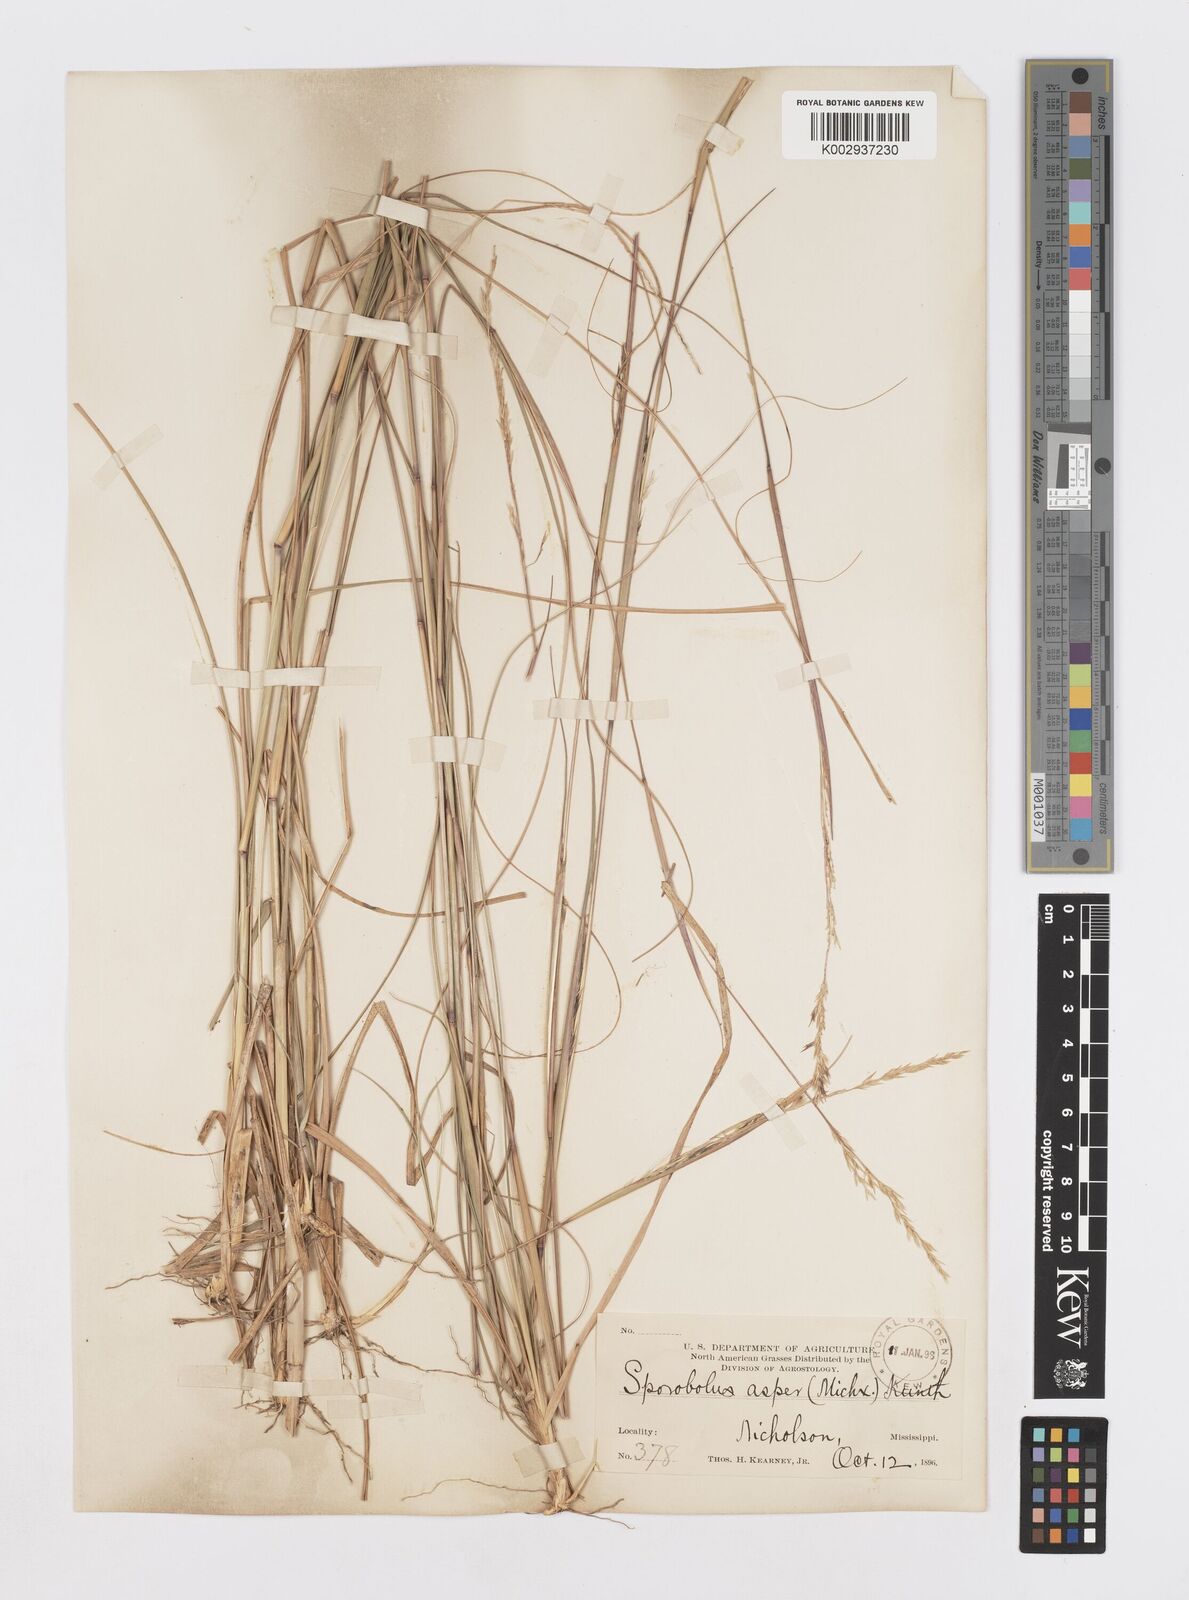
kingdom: Plantae
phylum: Tracheophyta
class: Liliopsida
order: Poales
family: Poaceae
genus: Sporobolus
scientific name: Sporobolus clandestinus
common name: Hidden dropseed
